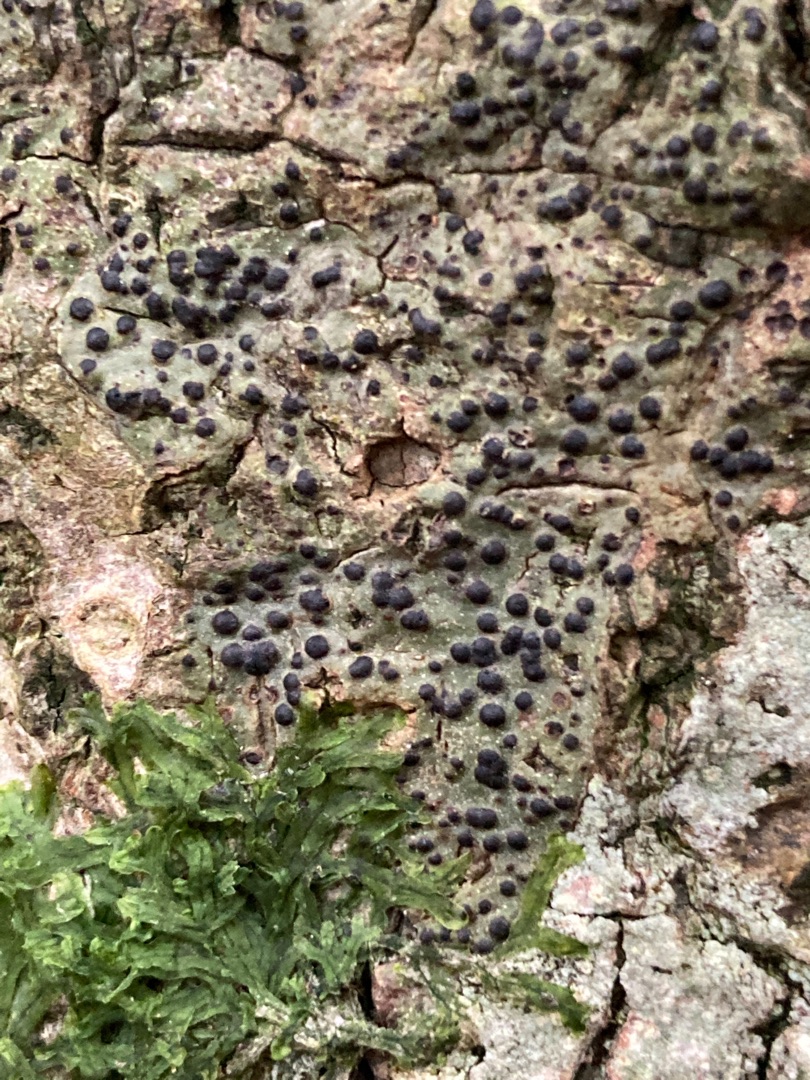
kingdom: Fungi
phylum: Ascomycota
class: Eurotiomycetes
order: Pyrenulales
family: Pyrenulaceae
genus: Pyrenula
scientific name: Pyrenula nitida
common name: Glinsende kernelav
